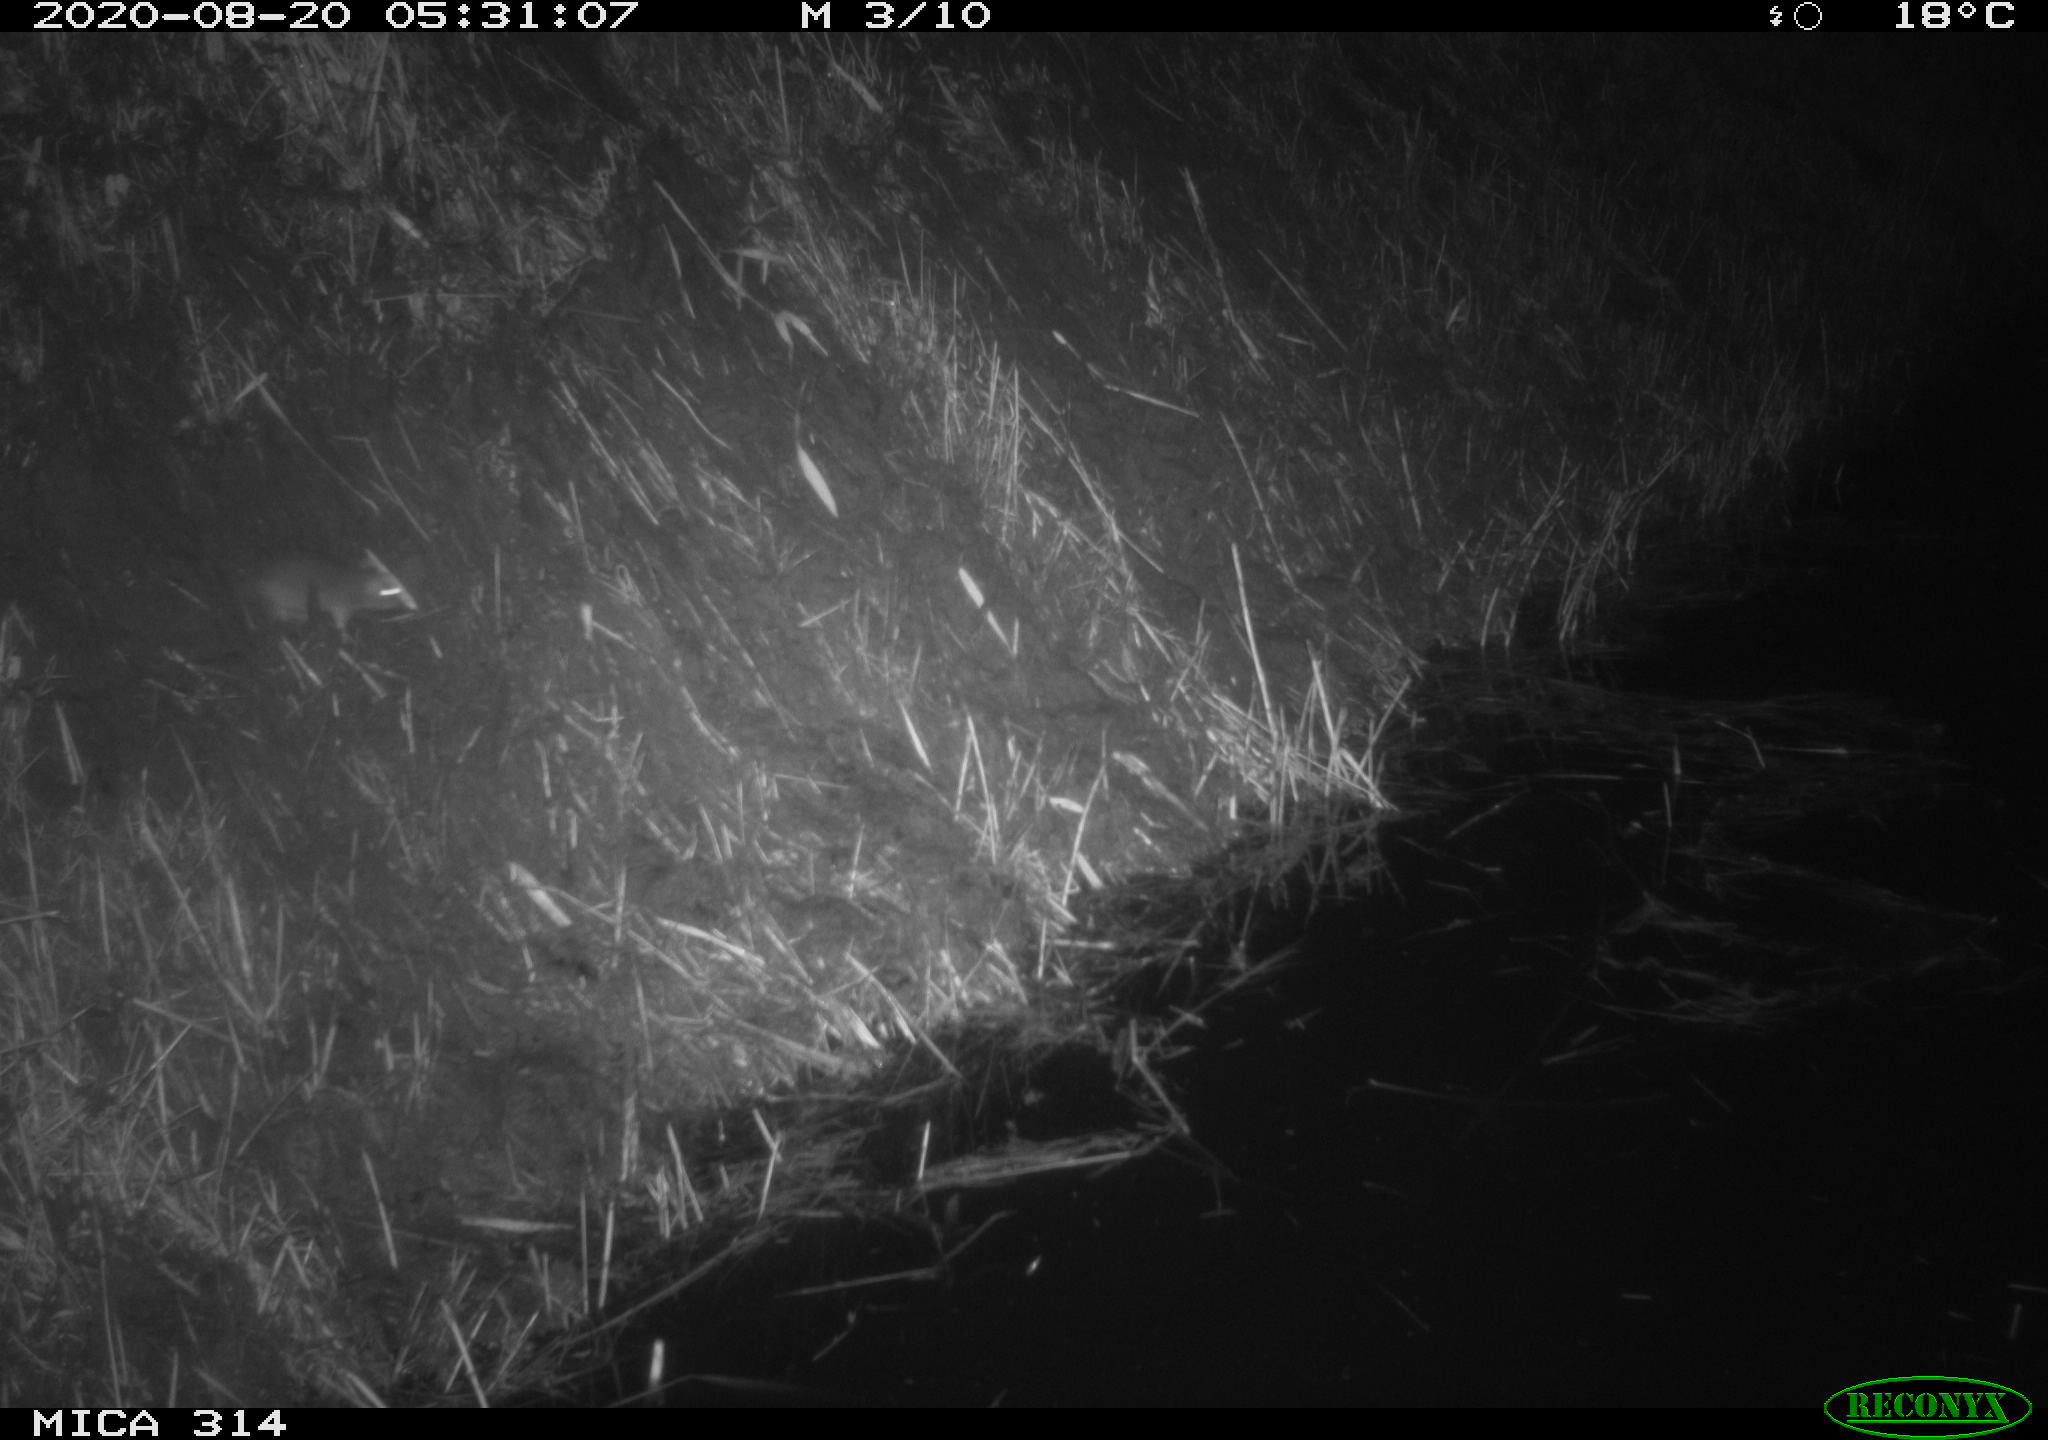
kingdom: Animalia
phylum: Chordata
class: Mammalia
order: Rodentia
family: Muridae
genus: Rattus
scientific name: Rattus norvegicus
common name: Brown rat
